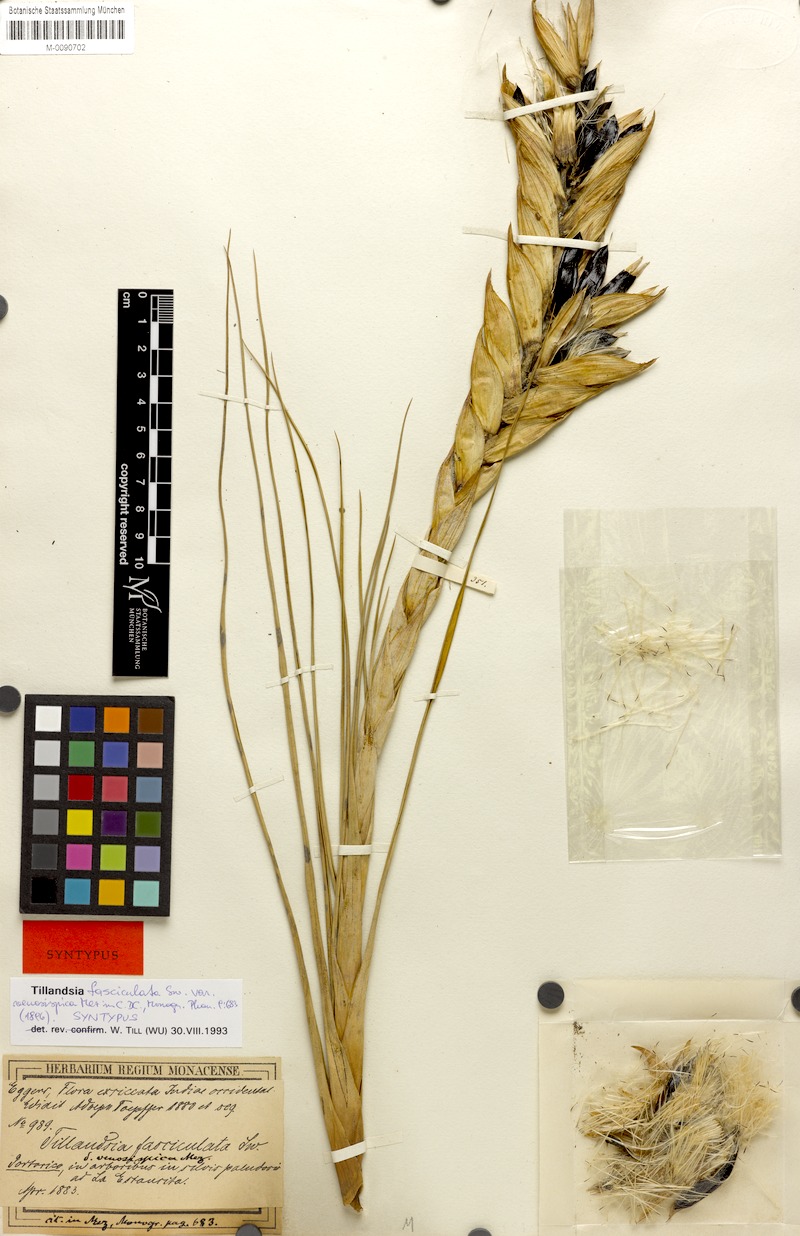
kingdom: Plantae
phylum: Tracheophyta
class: Liliopsida
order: Poales
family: Bromeliaceae
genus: Tillandsia
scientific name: Tillandsia compressa
